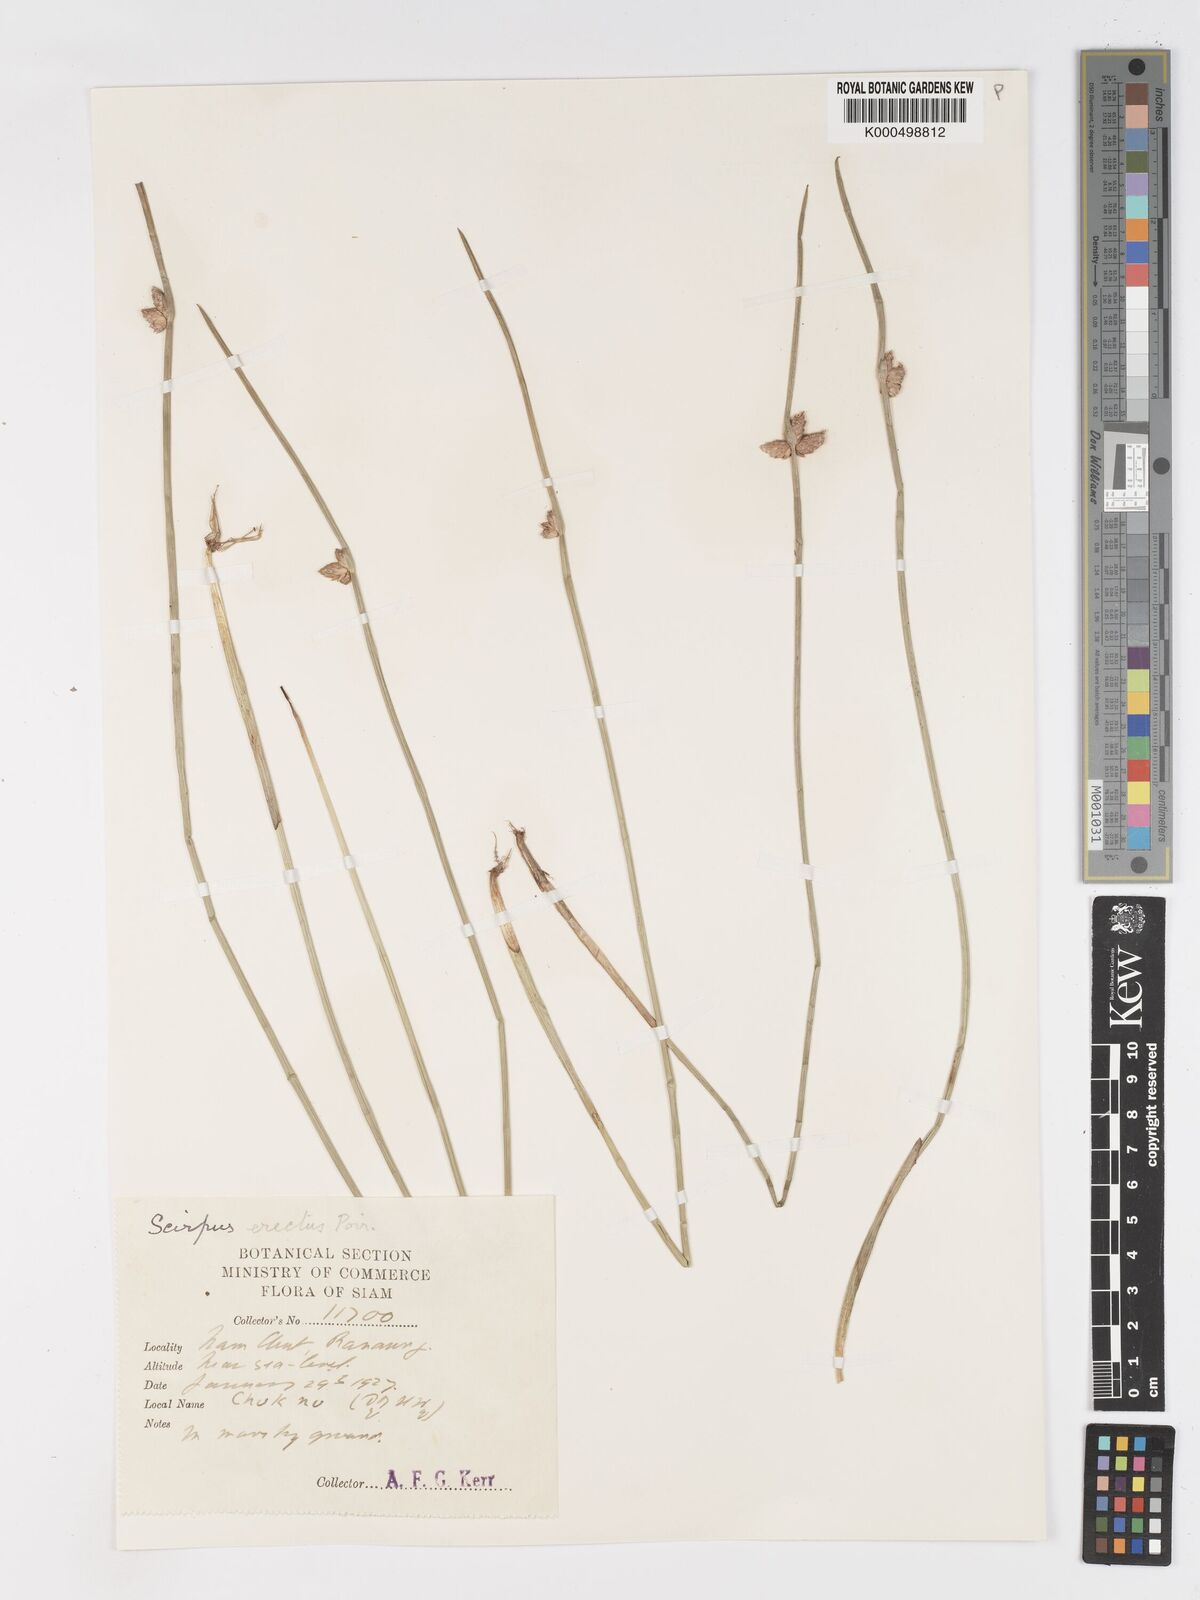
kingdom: Plantae
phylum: Tracheophyta
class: Liliopsida
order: Poales
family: Cyperaceae
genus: Schoenoplectiella
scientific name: Schoenoplectiella juncoides
